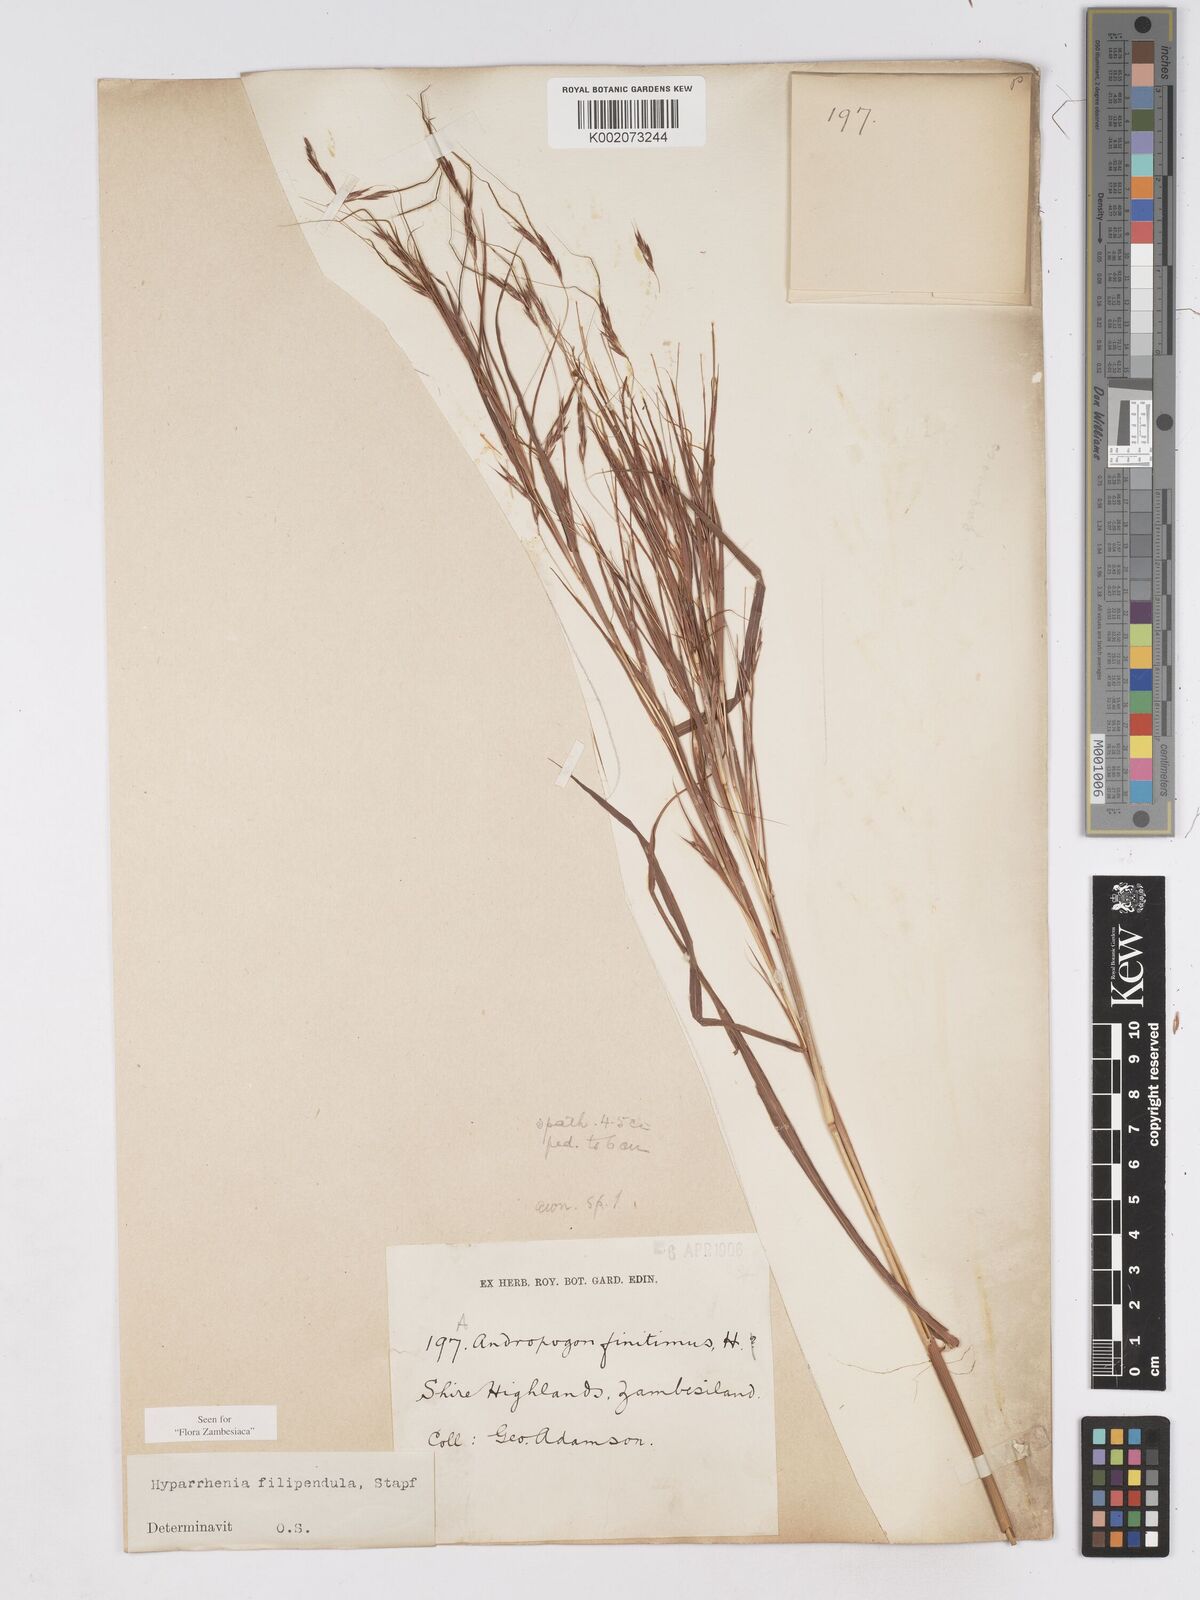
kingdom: Plantae
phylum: Tracheophyta
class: Liliopsida
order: Poales
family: Poaceae
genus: Hyparrhenia
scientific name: Hyparrhenia filipendula
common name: Tambookie grass
